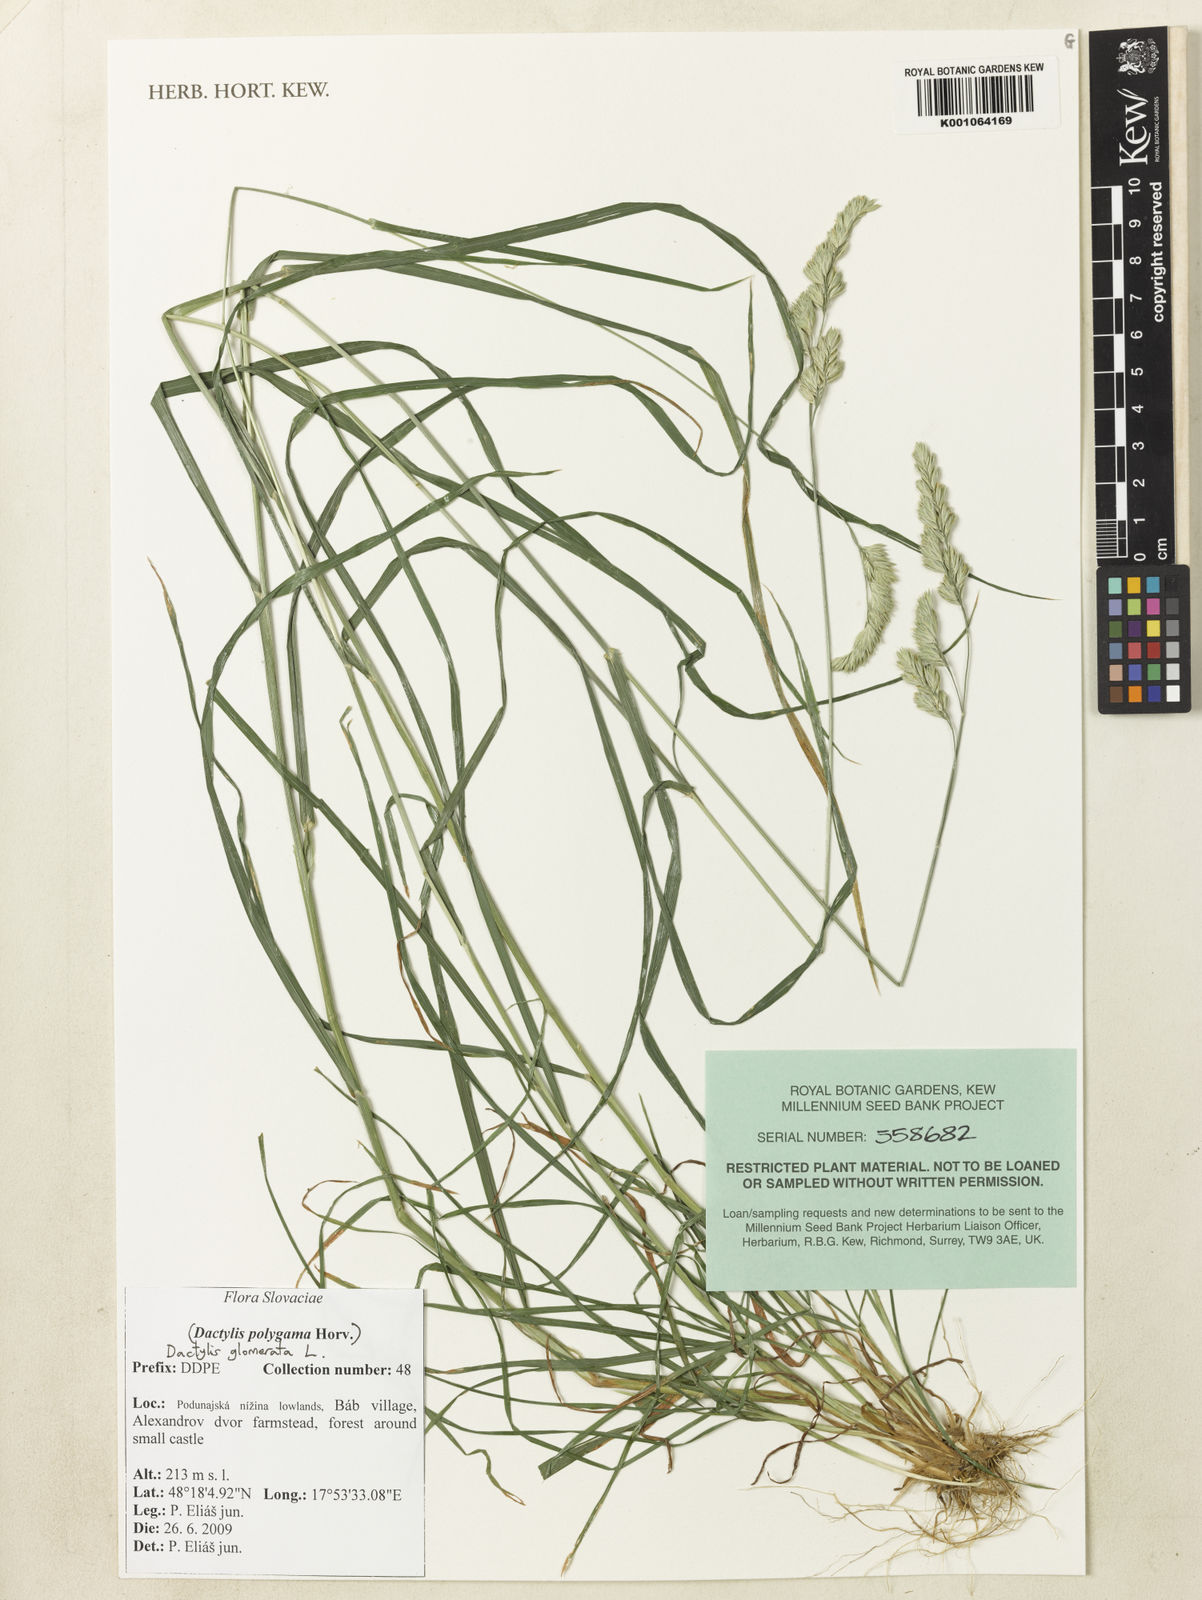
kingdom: Plantae
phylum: Tracheophyta
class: Liliopsida
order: Poales
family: Poaceae
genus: Dactylis
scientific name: Dactylis glomerata
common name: Orchardgrass
